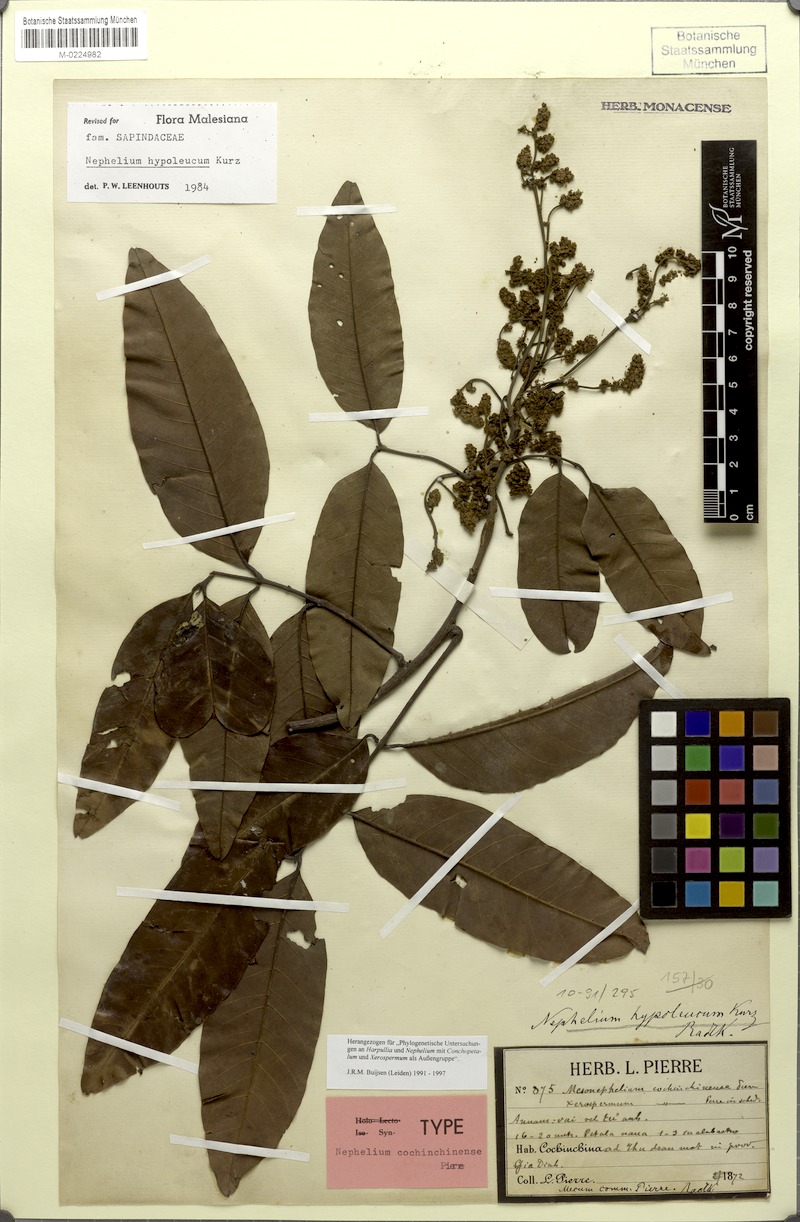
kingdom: Plantae
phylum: Tracheophyta
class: Magnoliopsida
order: Sapindales
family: Sapindaceae
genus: Nephelium
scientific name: Nephelium hypoleucum
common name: Korlan
